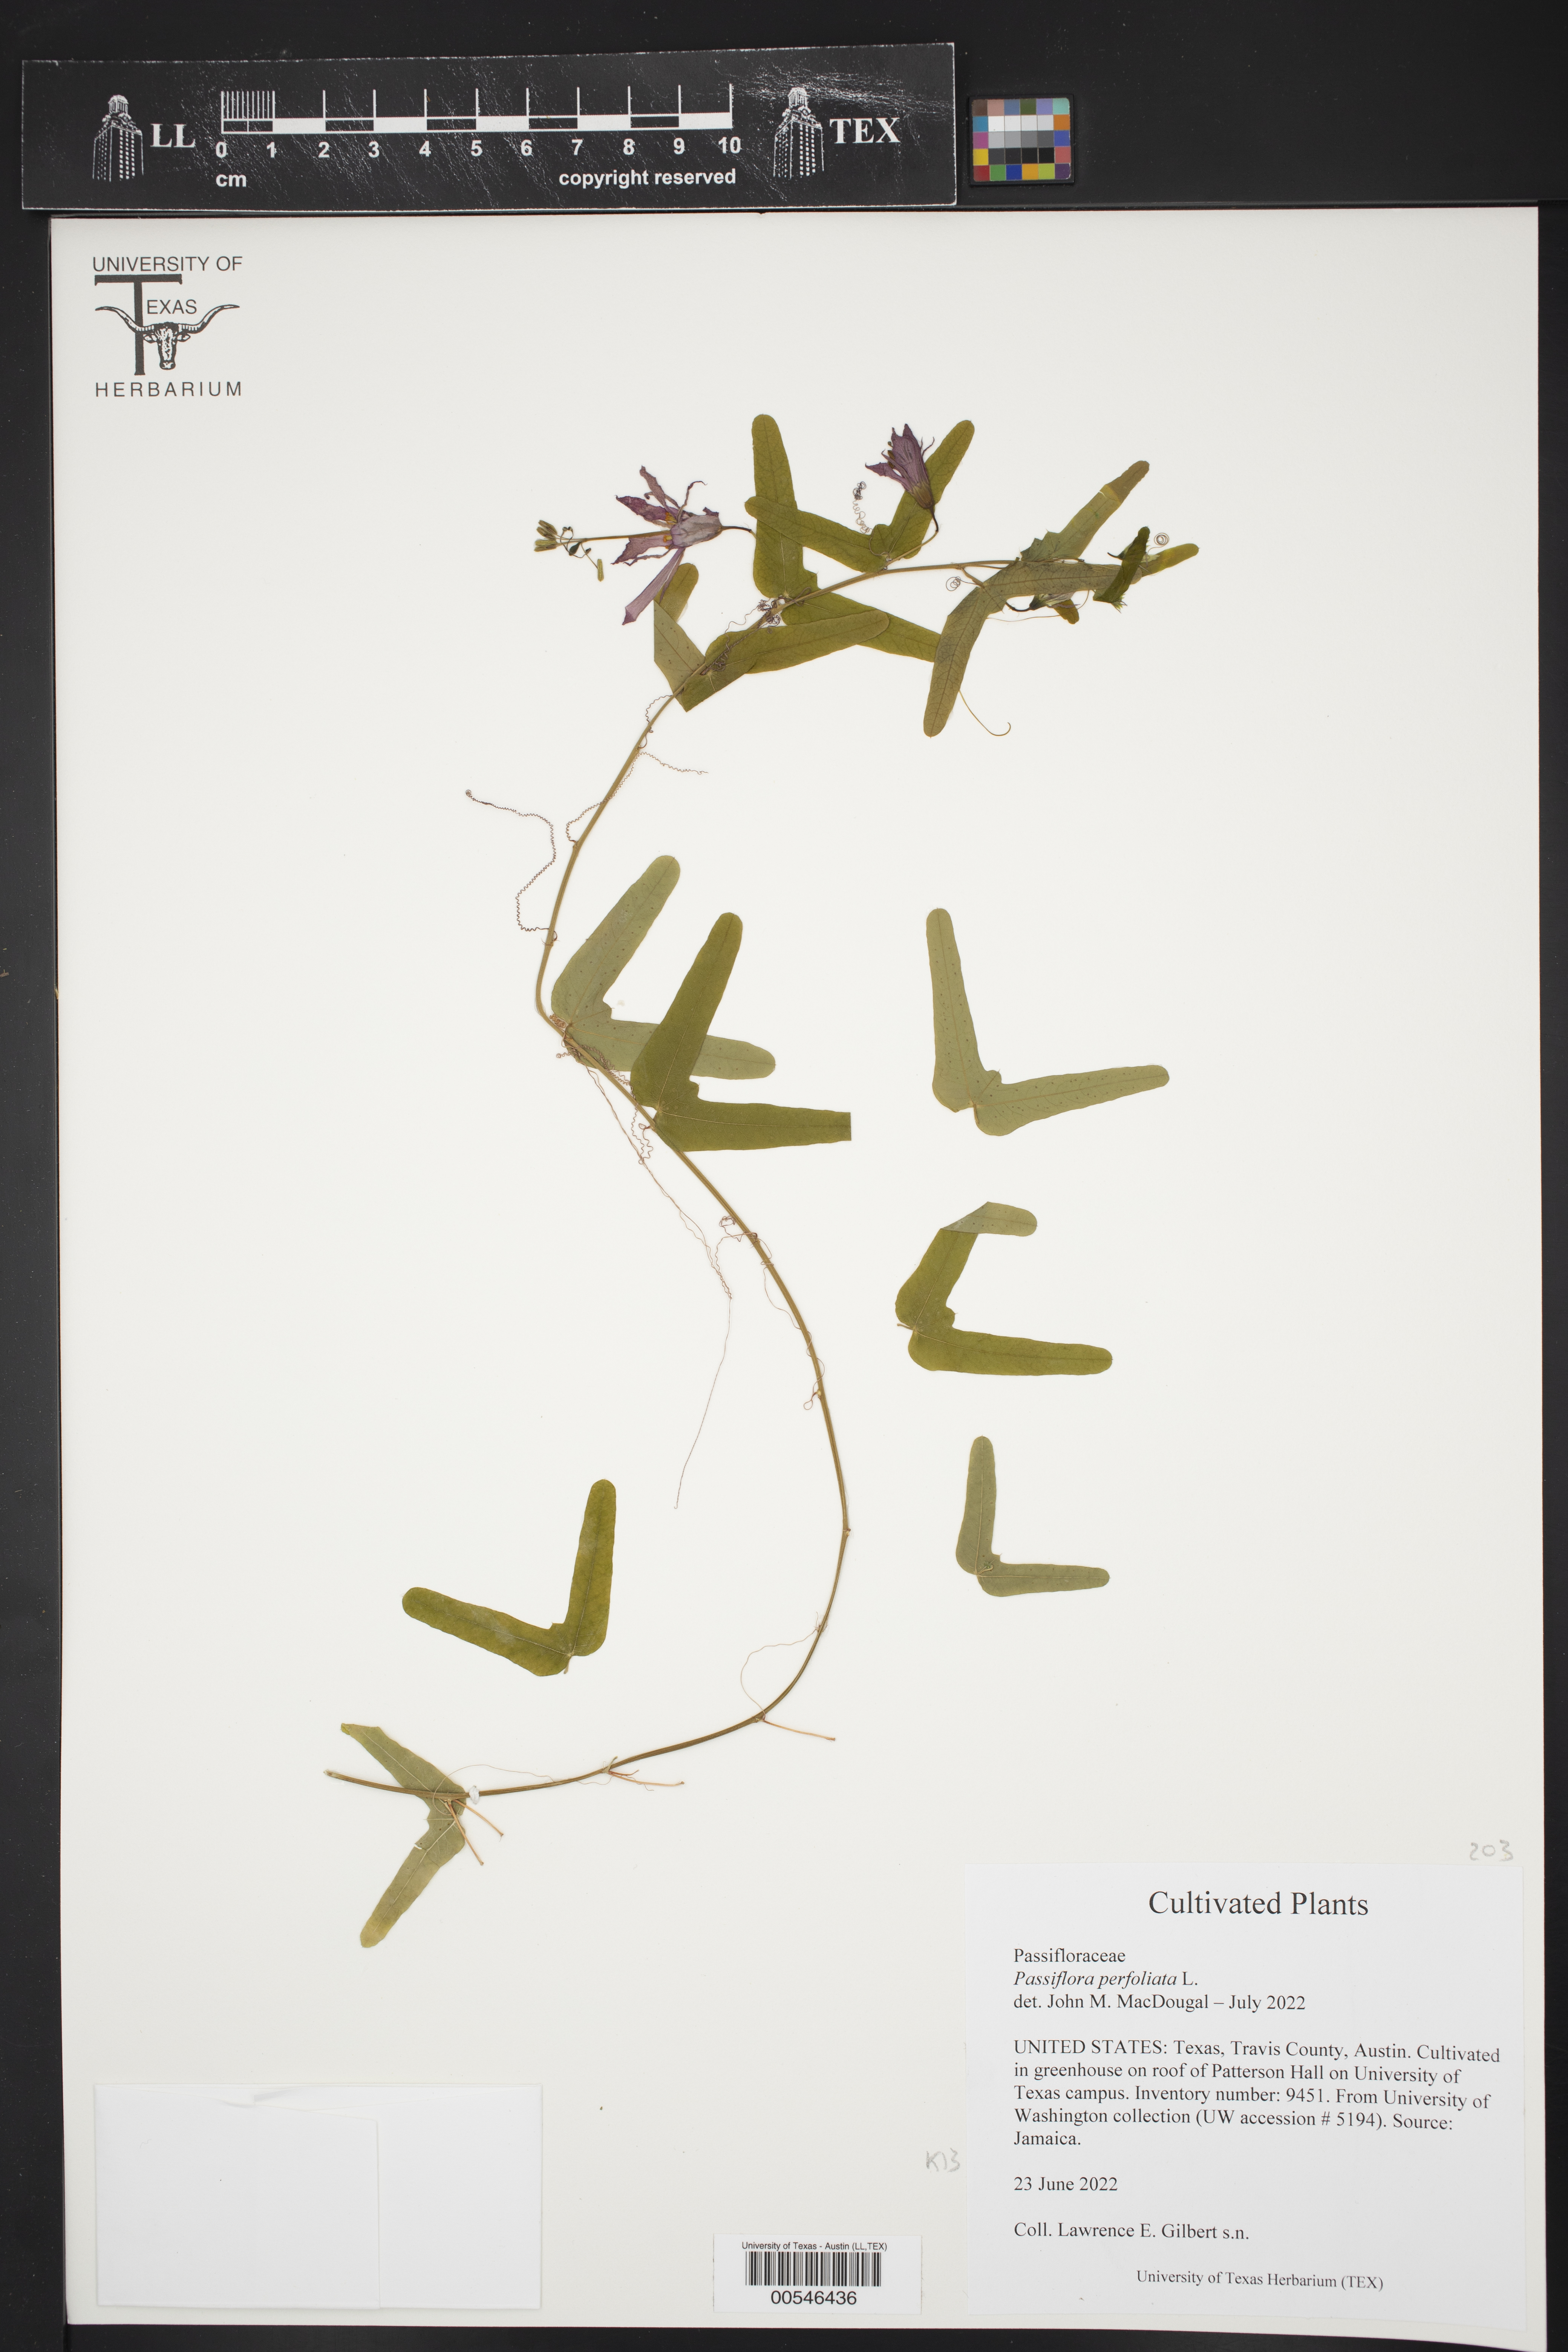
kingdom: Plantae
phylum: Tracheophyta
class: Magnoliopsida
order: Malpighiales
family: Passifloraceae
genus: Passiflora
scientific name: Passiflora perfoliata
